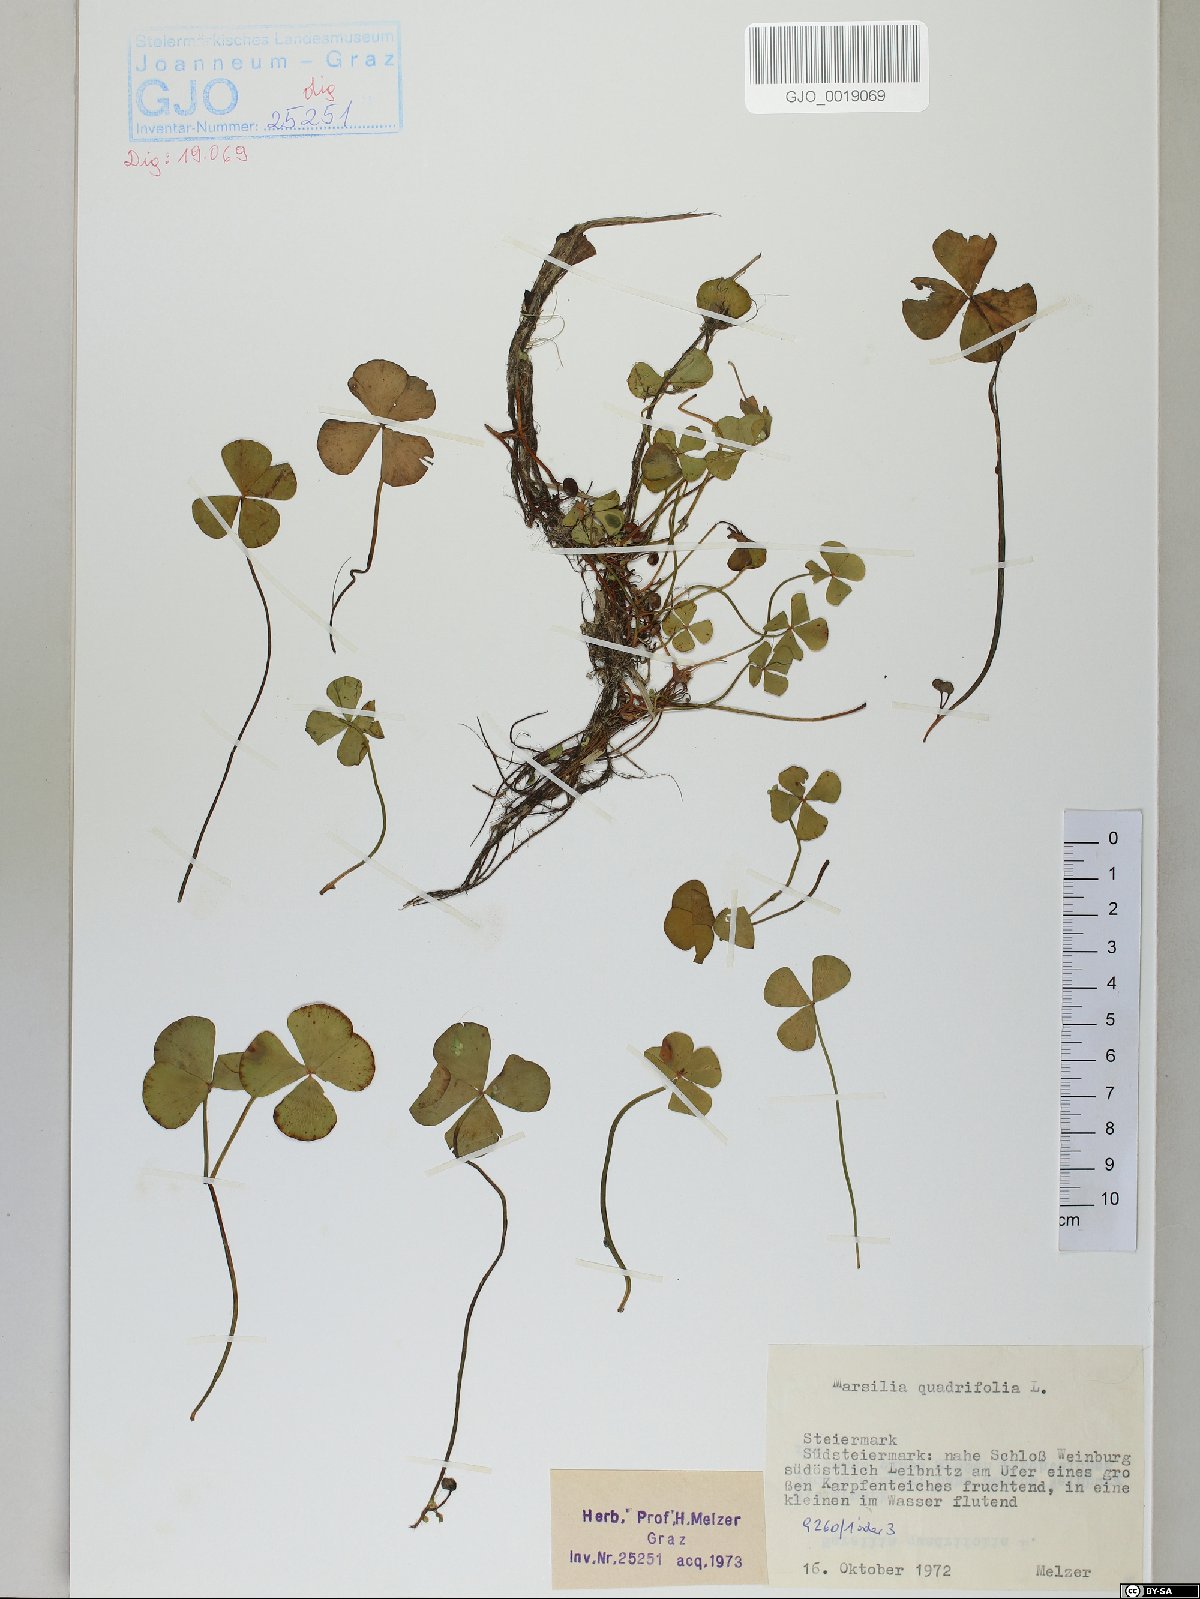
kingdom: Plantae
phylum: Tracheophyta
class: Polypodiopsida
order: Salviniales
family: Marsileaceae
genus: Marsilea
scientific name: Marsilea quadrifolia
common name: Water shamrock
